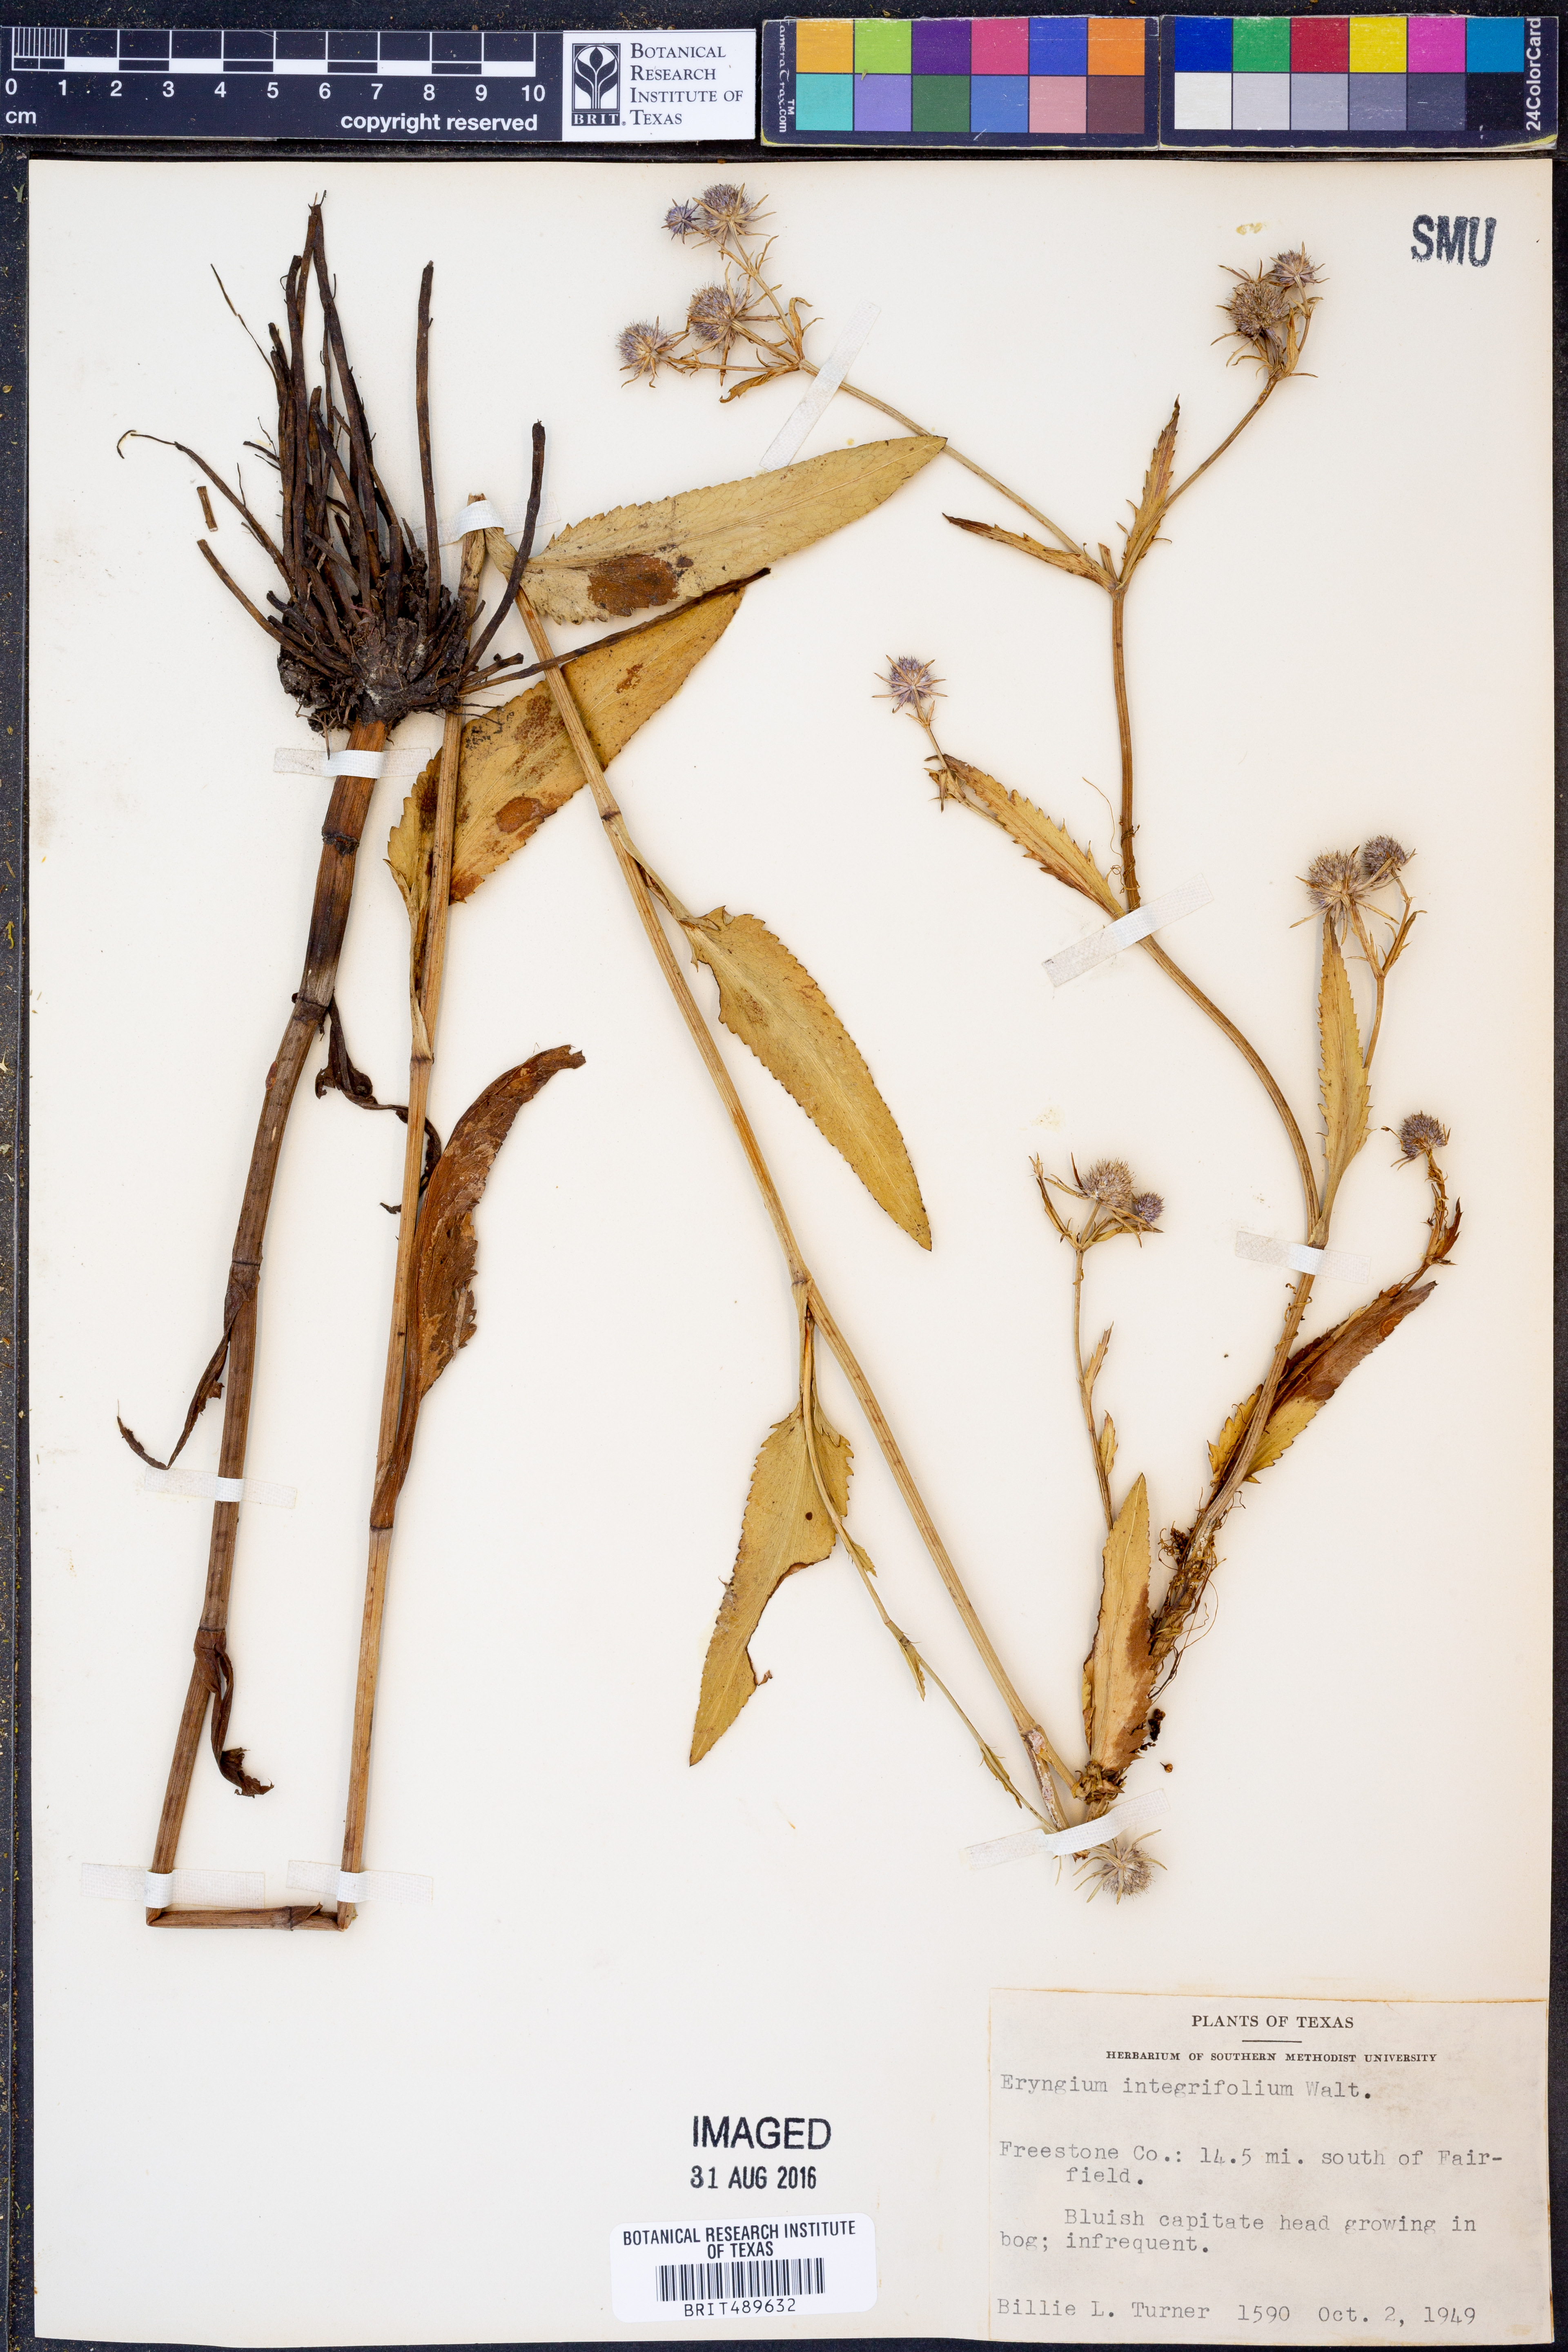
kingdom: Plantae
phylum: Tracheophyta
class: Magnoliopsida
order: Apiales
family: Apiaceae
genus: Eryngium
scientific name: Eryngium integrifolium
